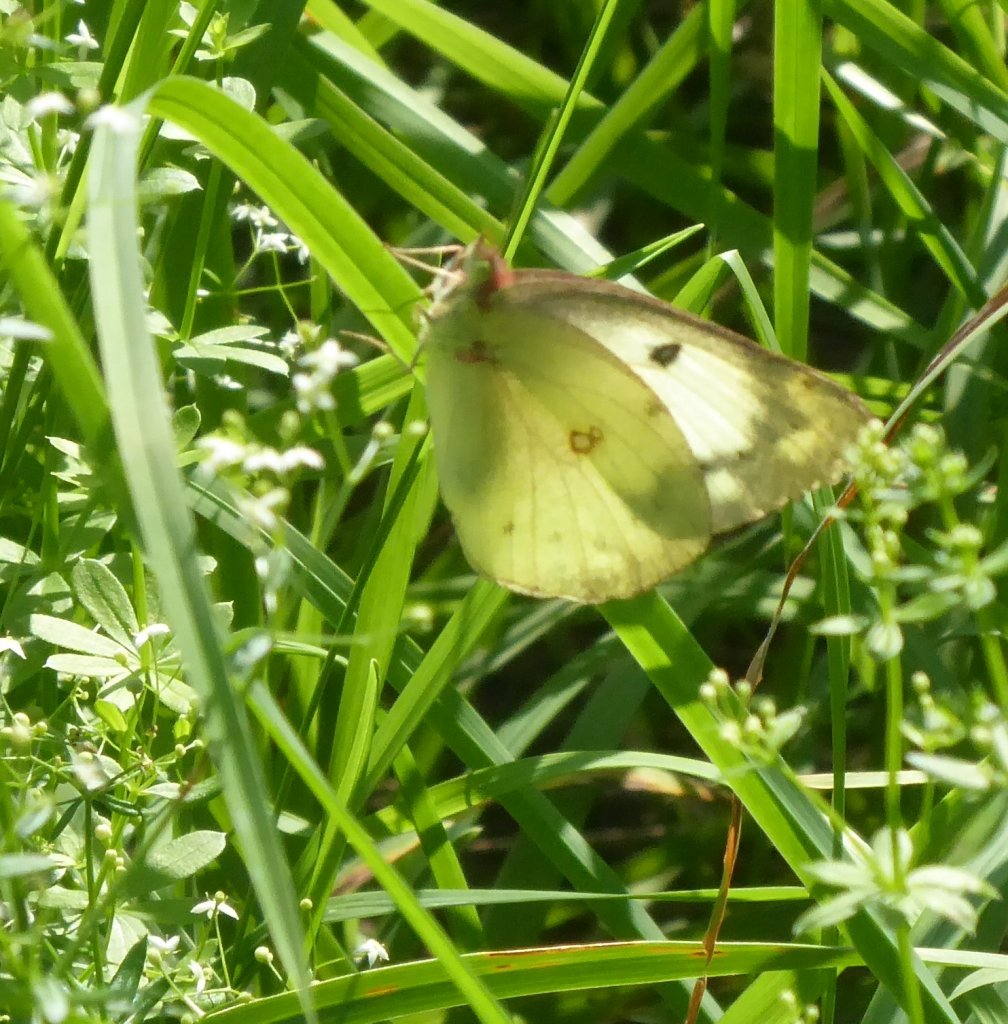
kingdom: Animalia
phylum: Arthropoda
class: Insecta
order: Lepidoptera
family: Pieridae
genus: Colias
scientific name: Colias philodice
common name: Clouded Sulphur
